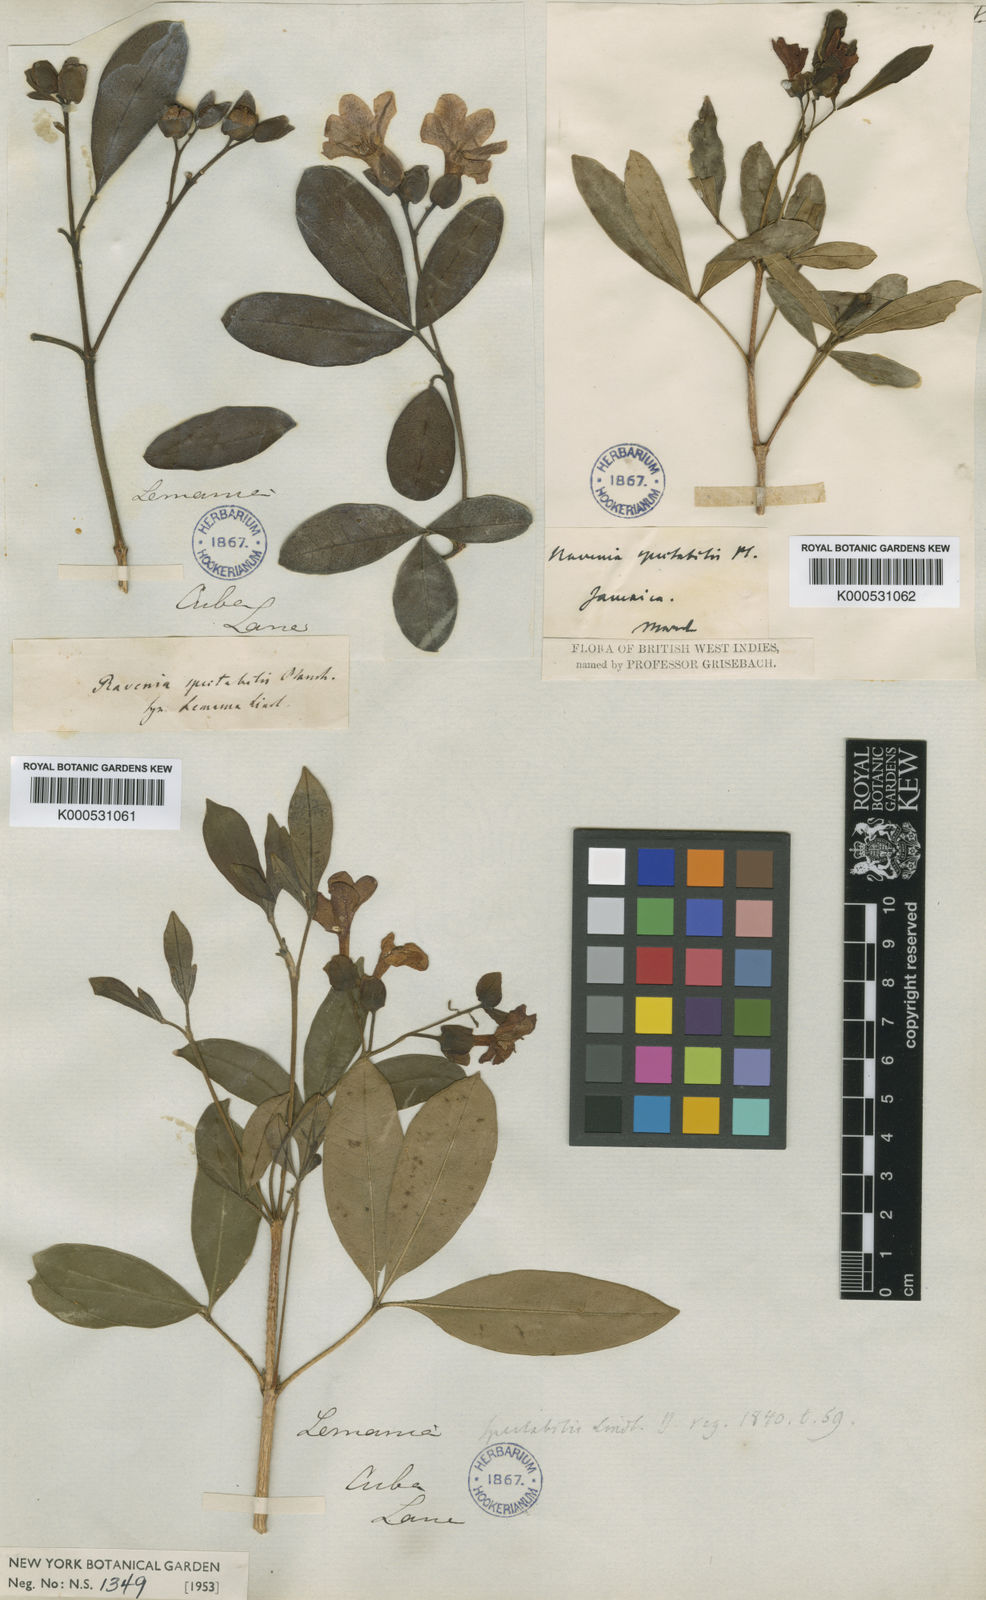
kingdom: Plantae
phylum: Tracheophyta
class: Magnoliopsida
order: Sapindales
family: Rutaceae
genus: Ravenia
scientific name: Ravenia
